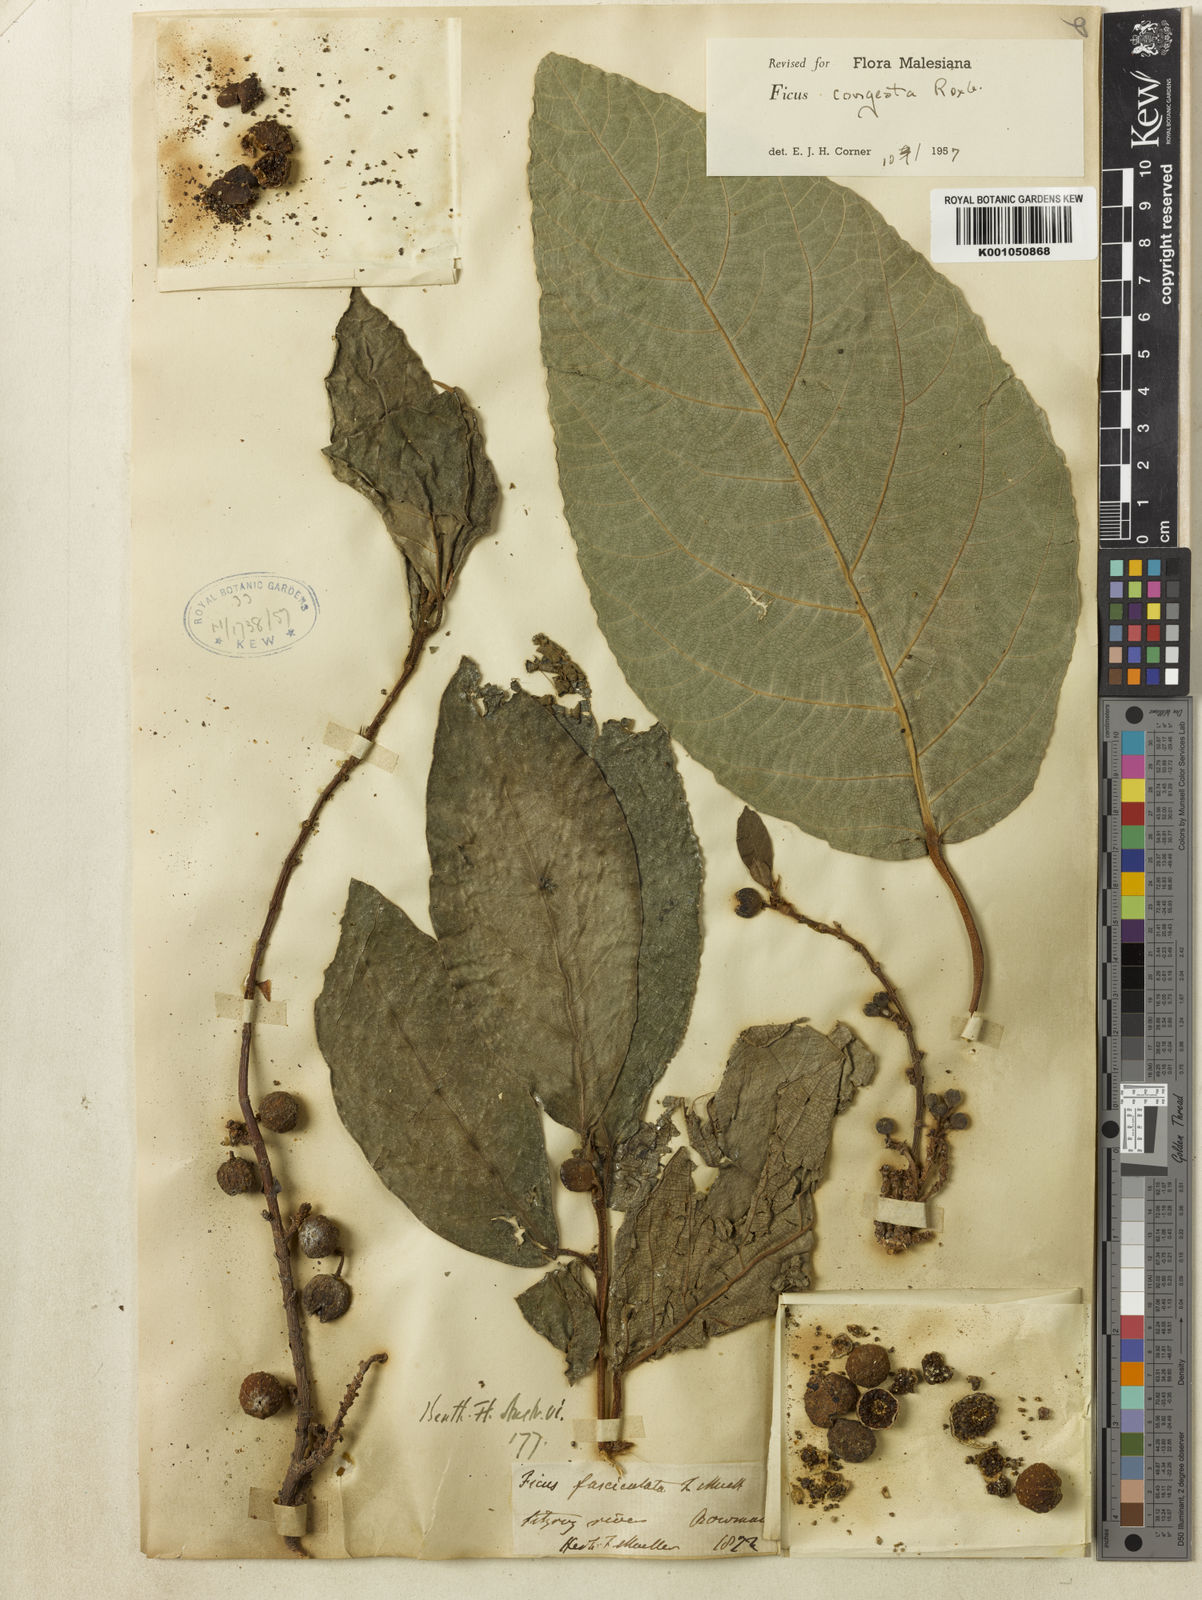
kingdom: Plantae
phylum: Tracheophyta
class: Magnoliopsida
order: Rosales
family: Moraceae
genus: Ficus
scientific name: Ficus congesta
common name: Cluster fig
